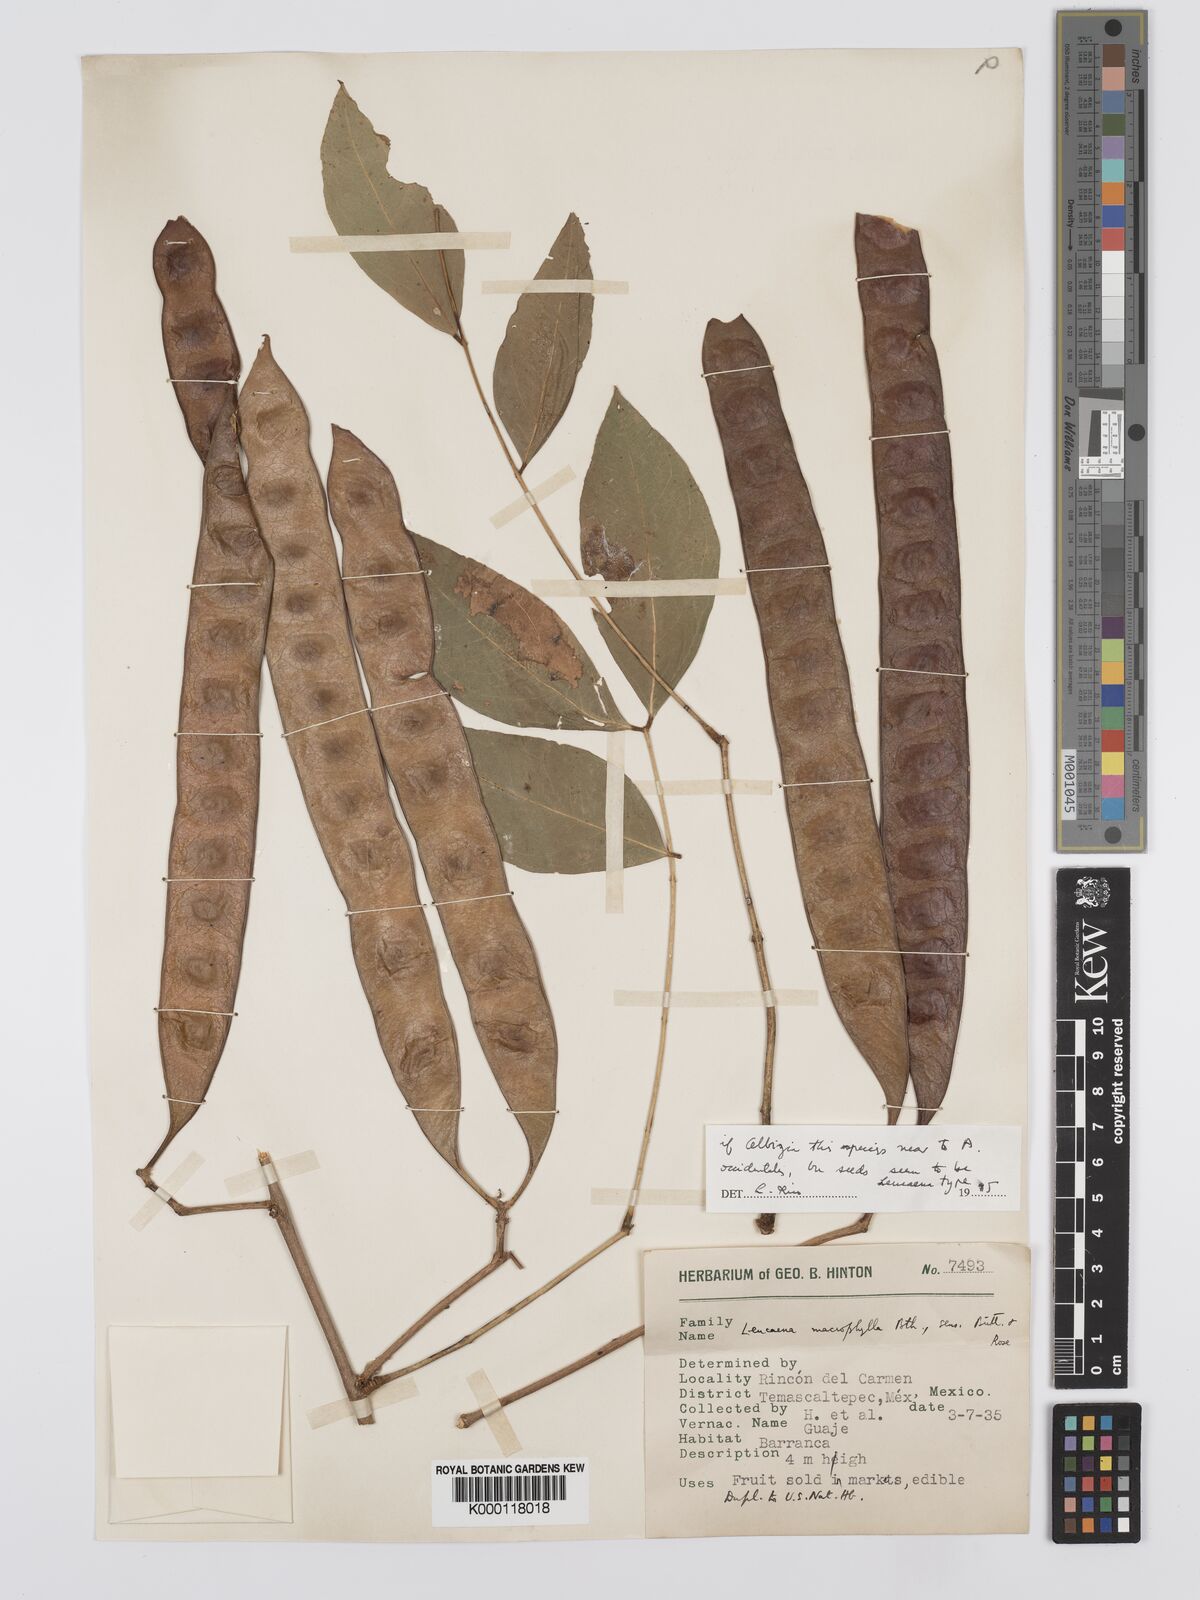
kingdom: Plantae
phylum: Tracheophyta
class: Magnoliopsida
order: Fabales
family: Fabaceae
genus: Albizia
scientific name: Albizia
